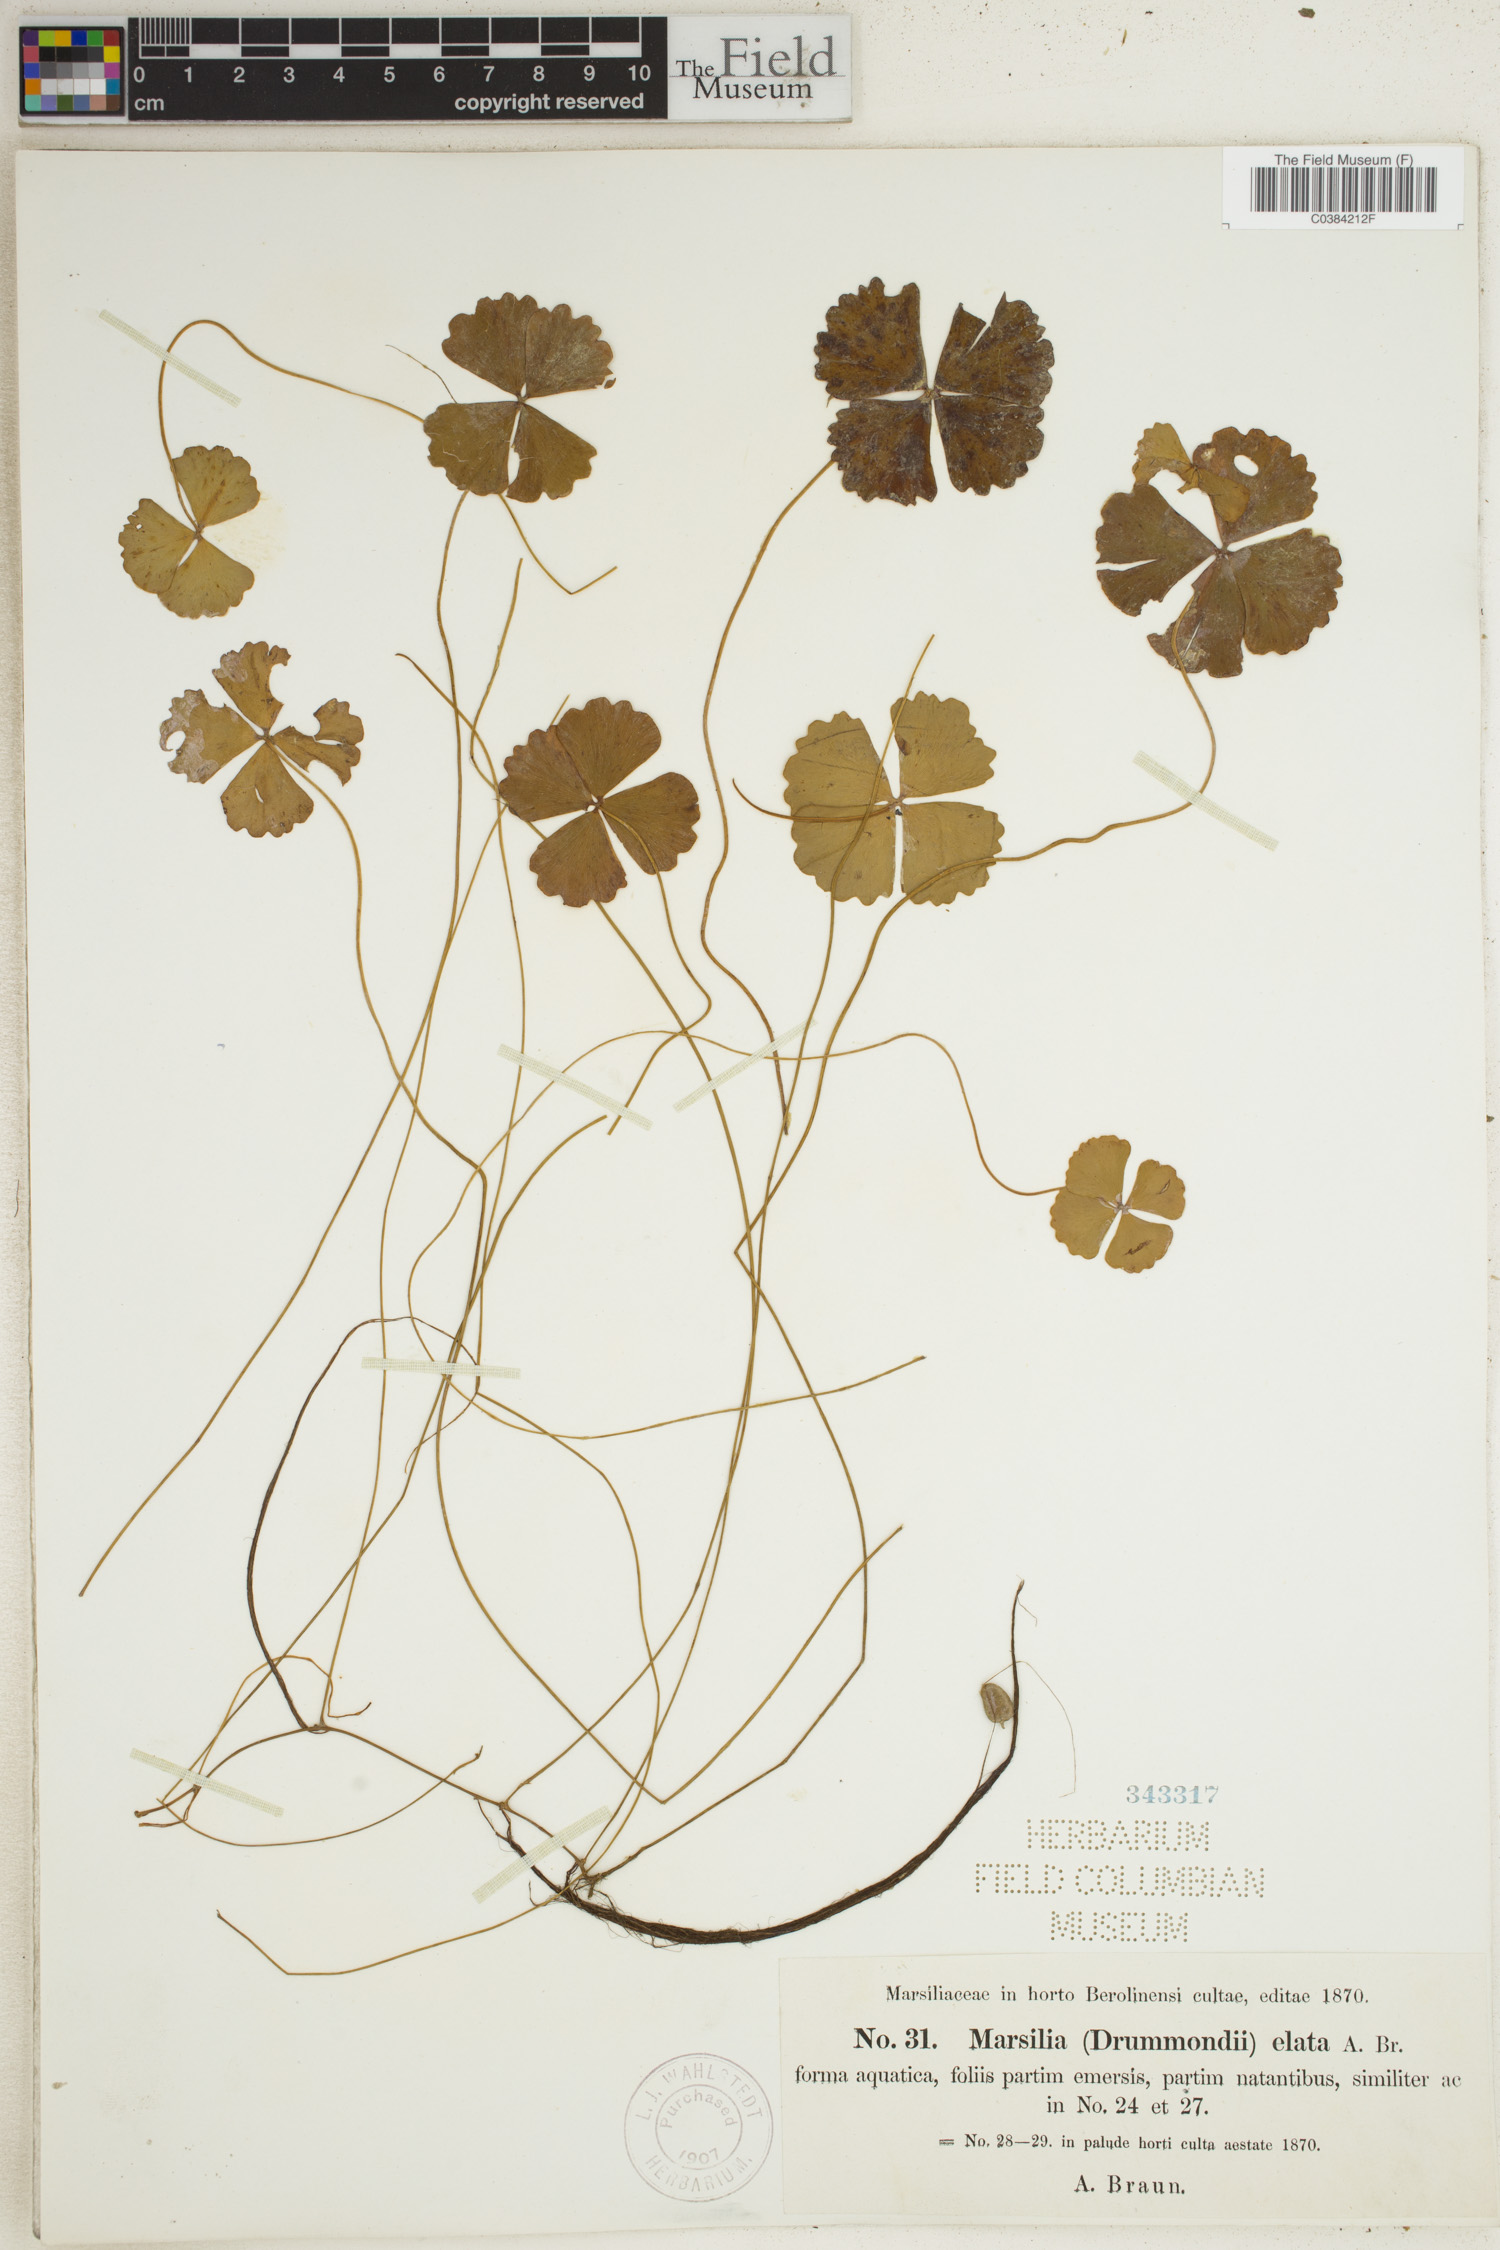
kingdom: Plantae
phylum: Tracheophyta
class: Polypodiopsida
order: Salviniales
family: Marsileaceae
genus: Marsilea
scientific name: Marsilea drummondii
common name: Nardoo
